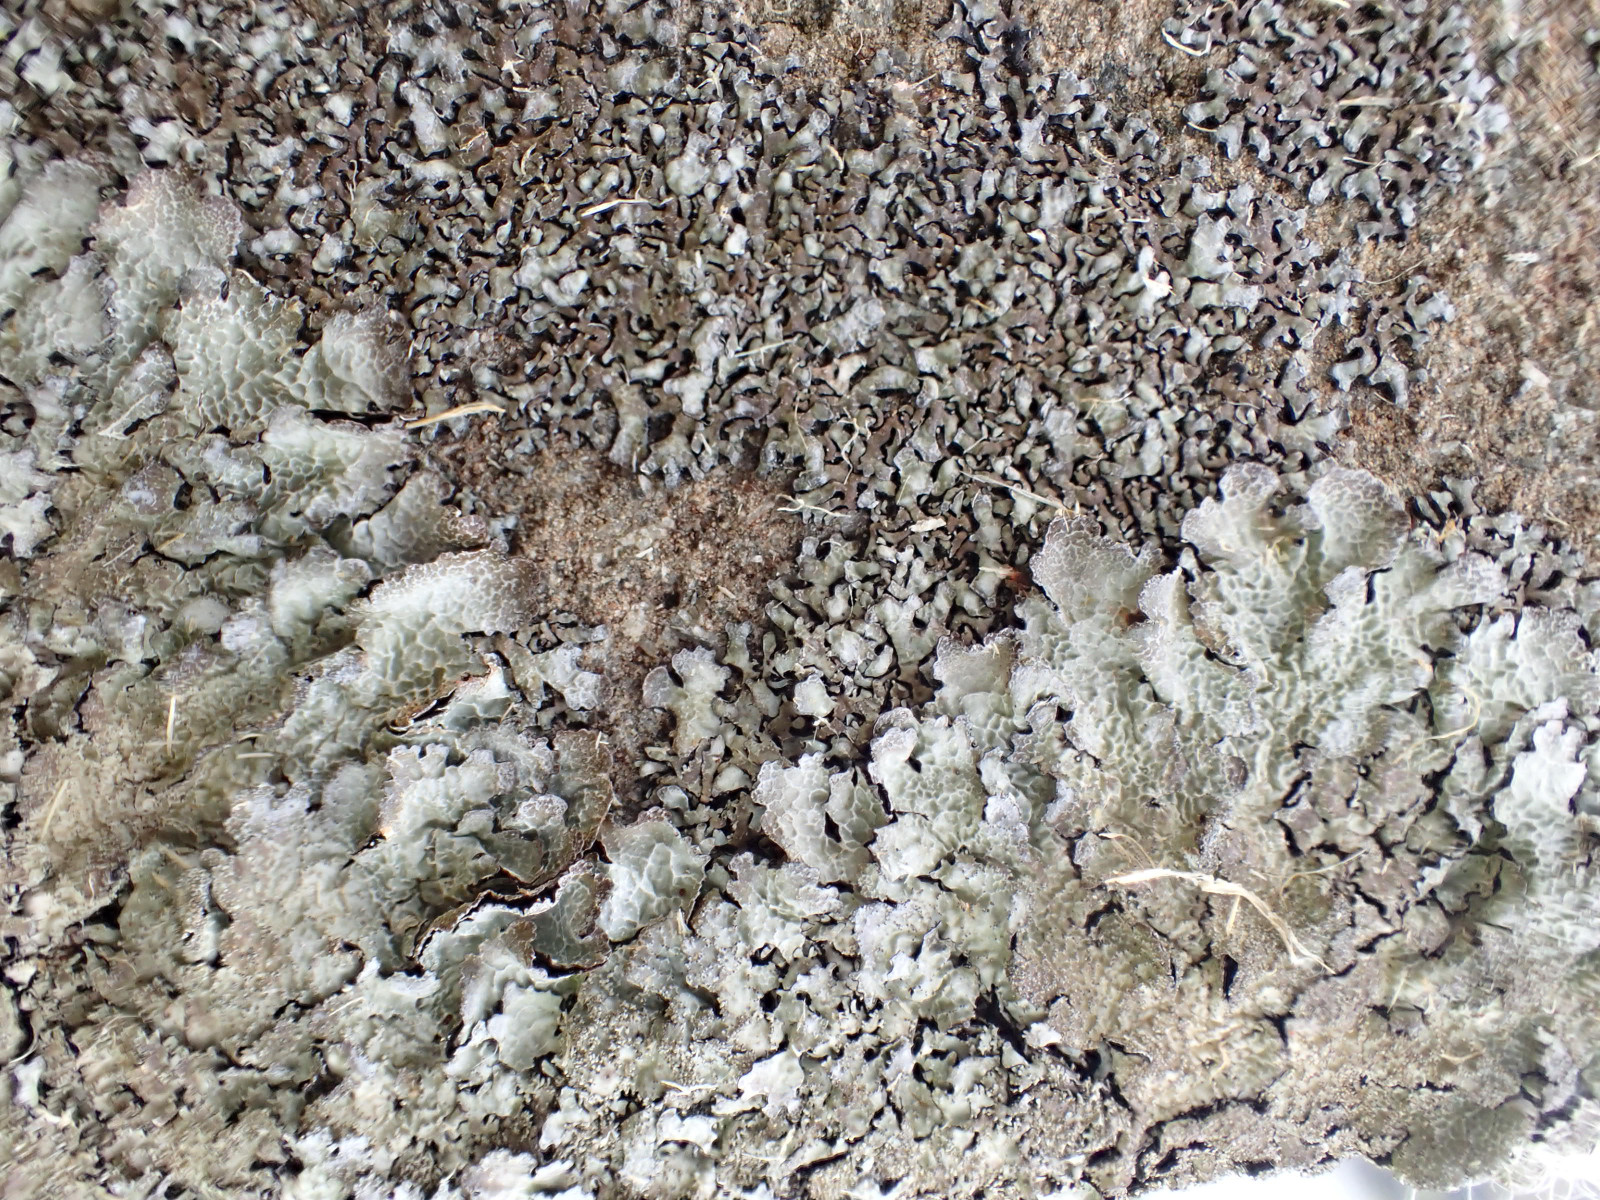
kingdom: Fungi
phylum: Ascomycota
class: Lecanoromycetes
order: Lecanorales
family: Parmeliaceae
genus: Parmelia
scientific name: Parmelia saxatilis
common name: farve-skållav
